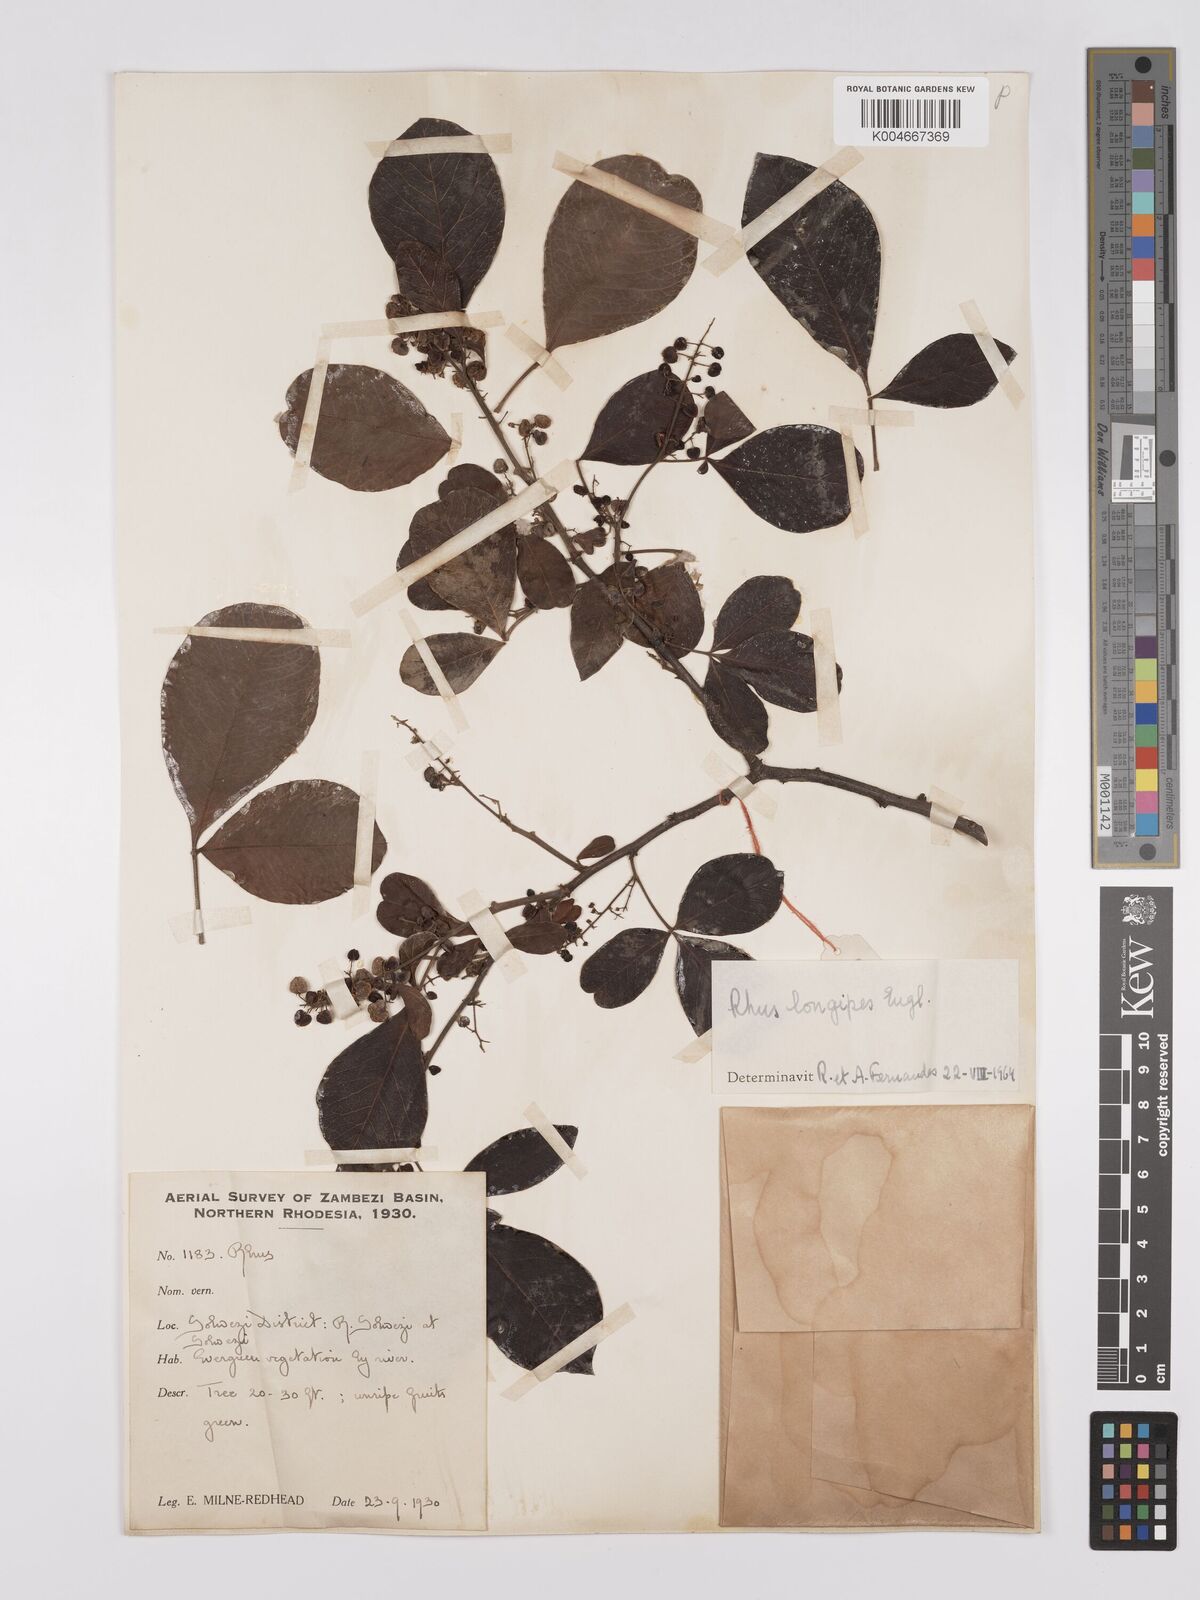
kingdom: Plantae
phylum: Tracheophyta
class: Magnoliopsida
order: Sapindales
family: Anacardiaceae
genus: Searsia
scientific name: Searsia longipes
